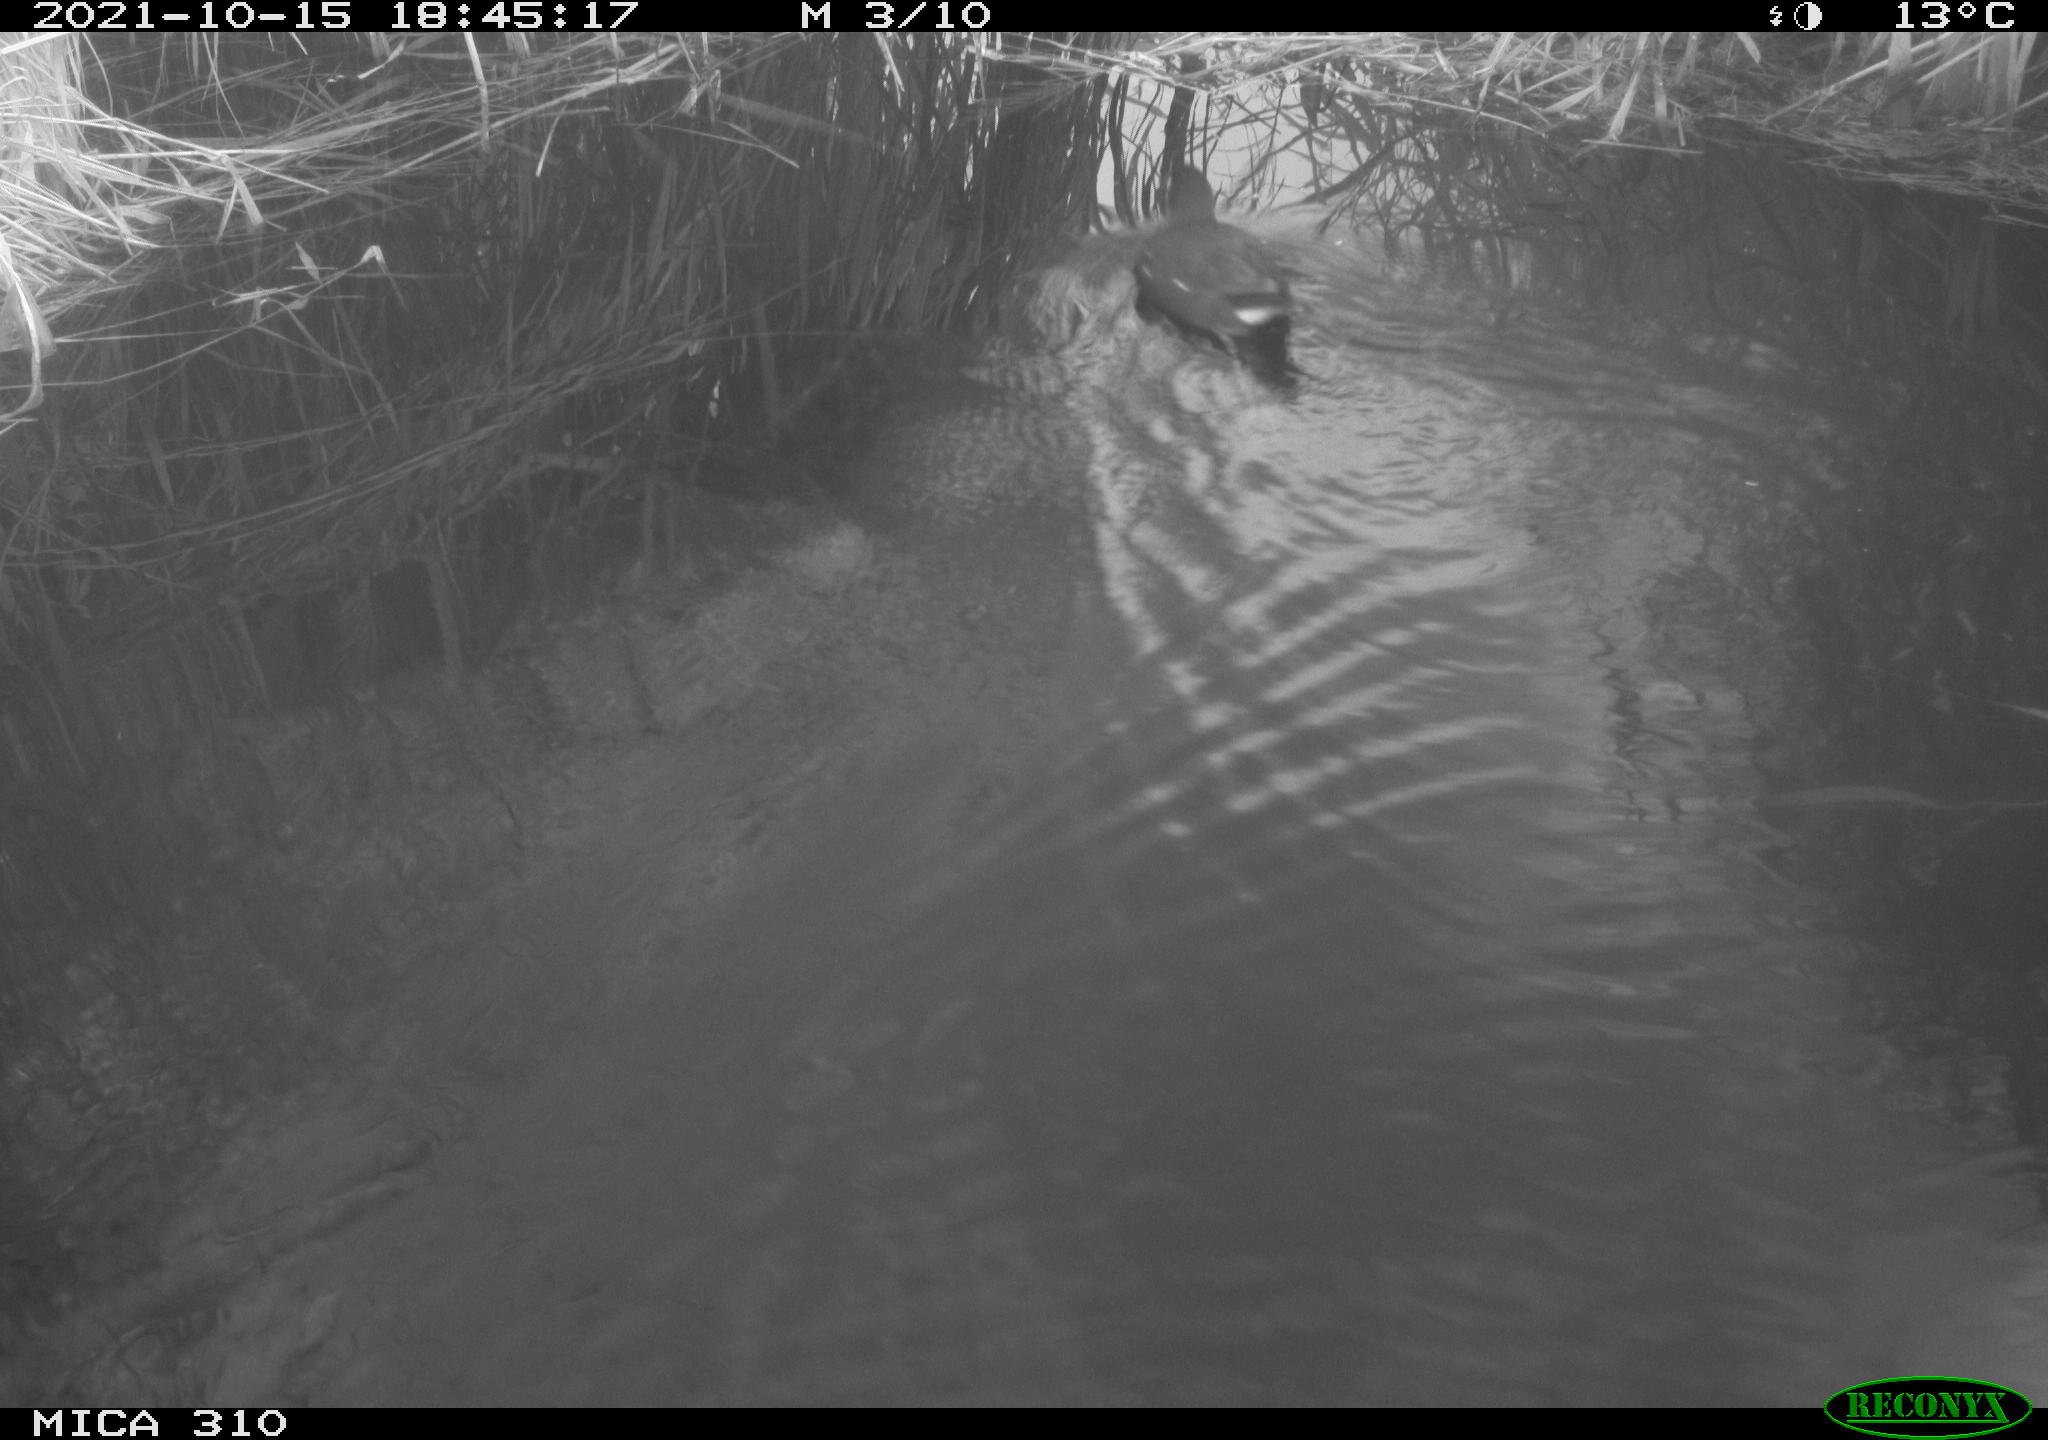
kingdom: Animalia
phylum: Chordata
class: Aves
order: Gruiformes
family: Rallidae
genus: Gallinula
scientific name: Gallinula chloropus
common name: Common moorhen
